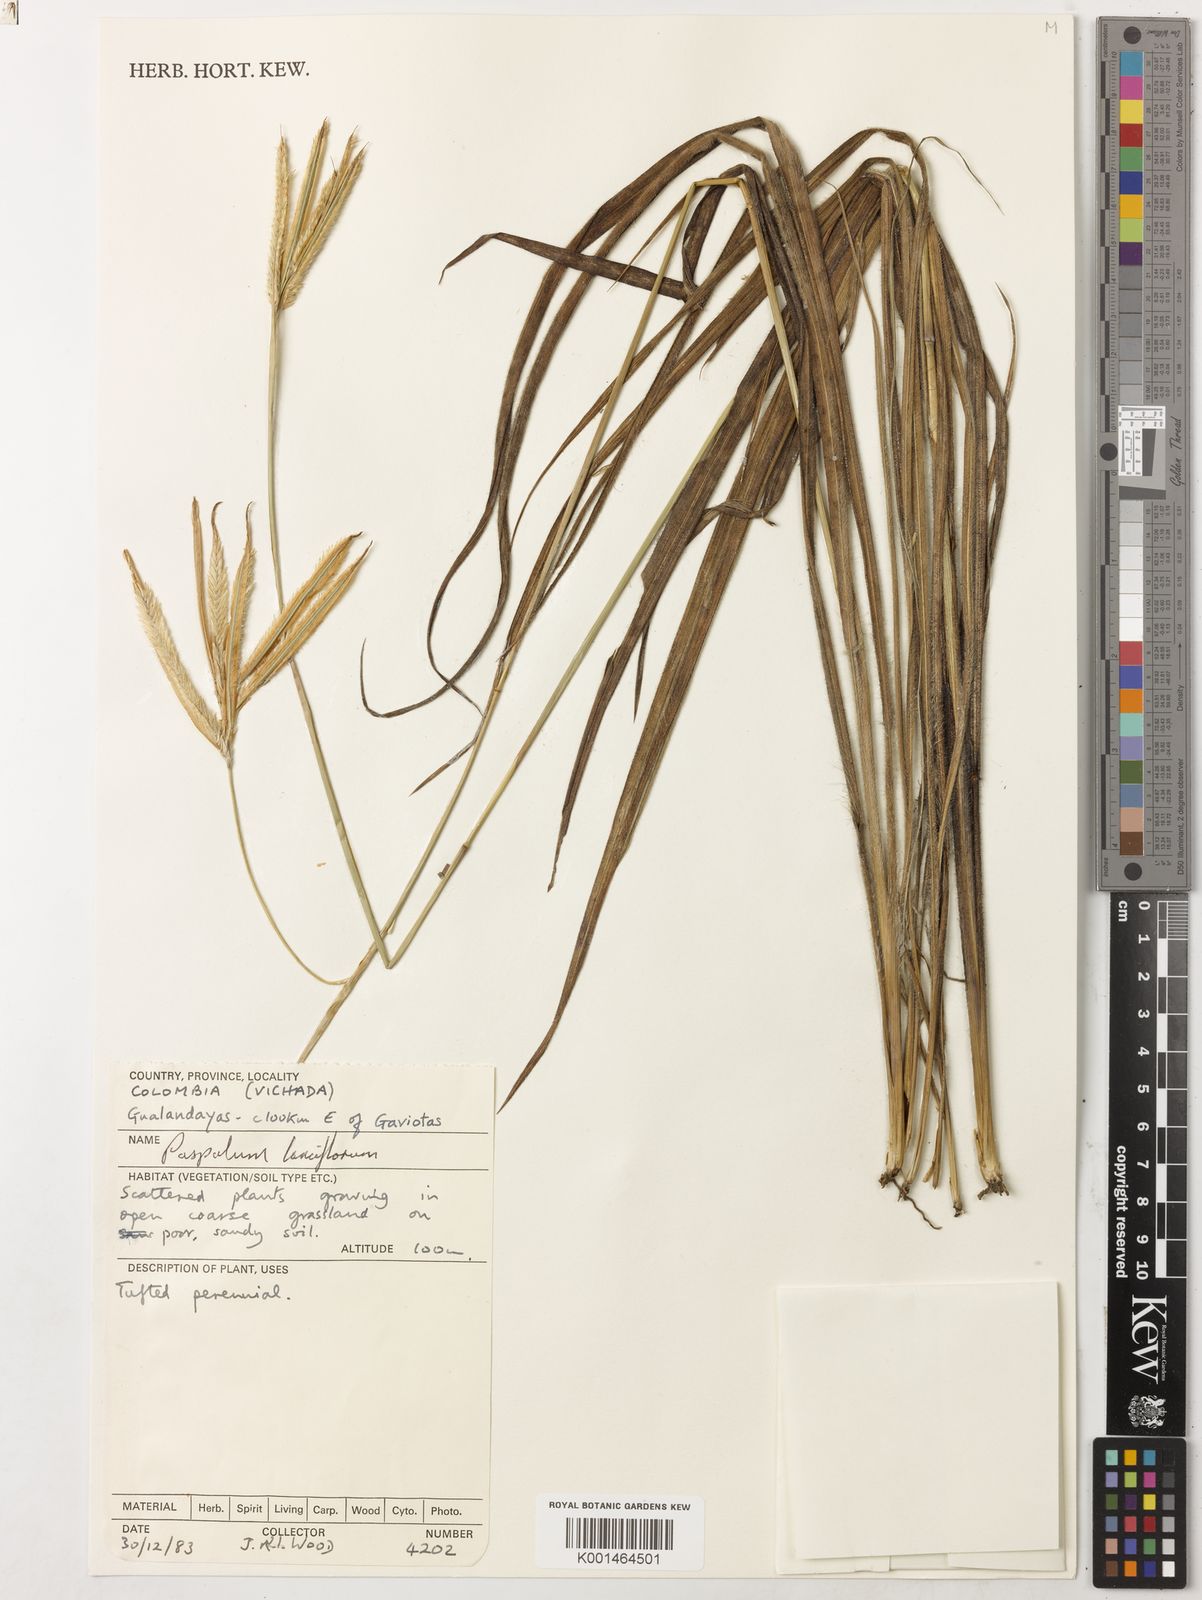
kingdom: Plantae
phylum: Tracheophyta
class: Liliopsida
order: Poales
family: Poaceae
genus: Paspalum
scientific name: Paspalum lanciflorum
